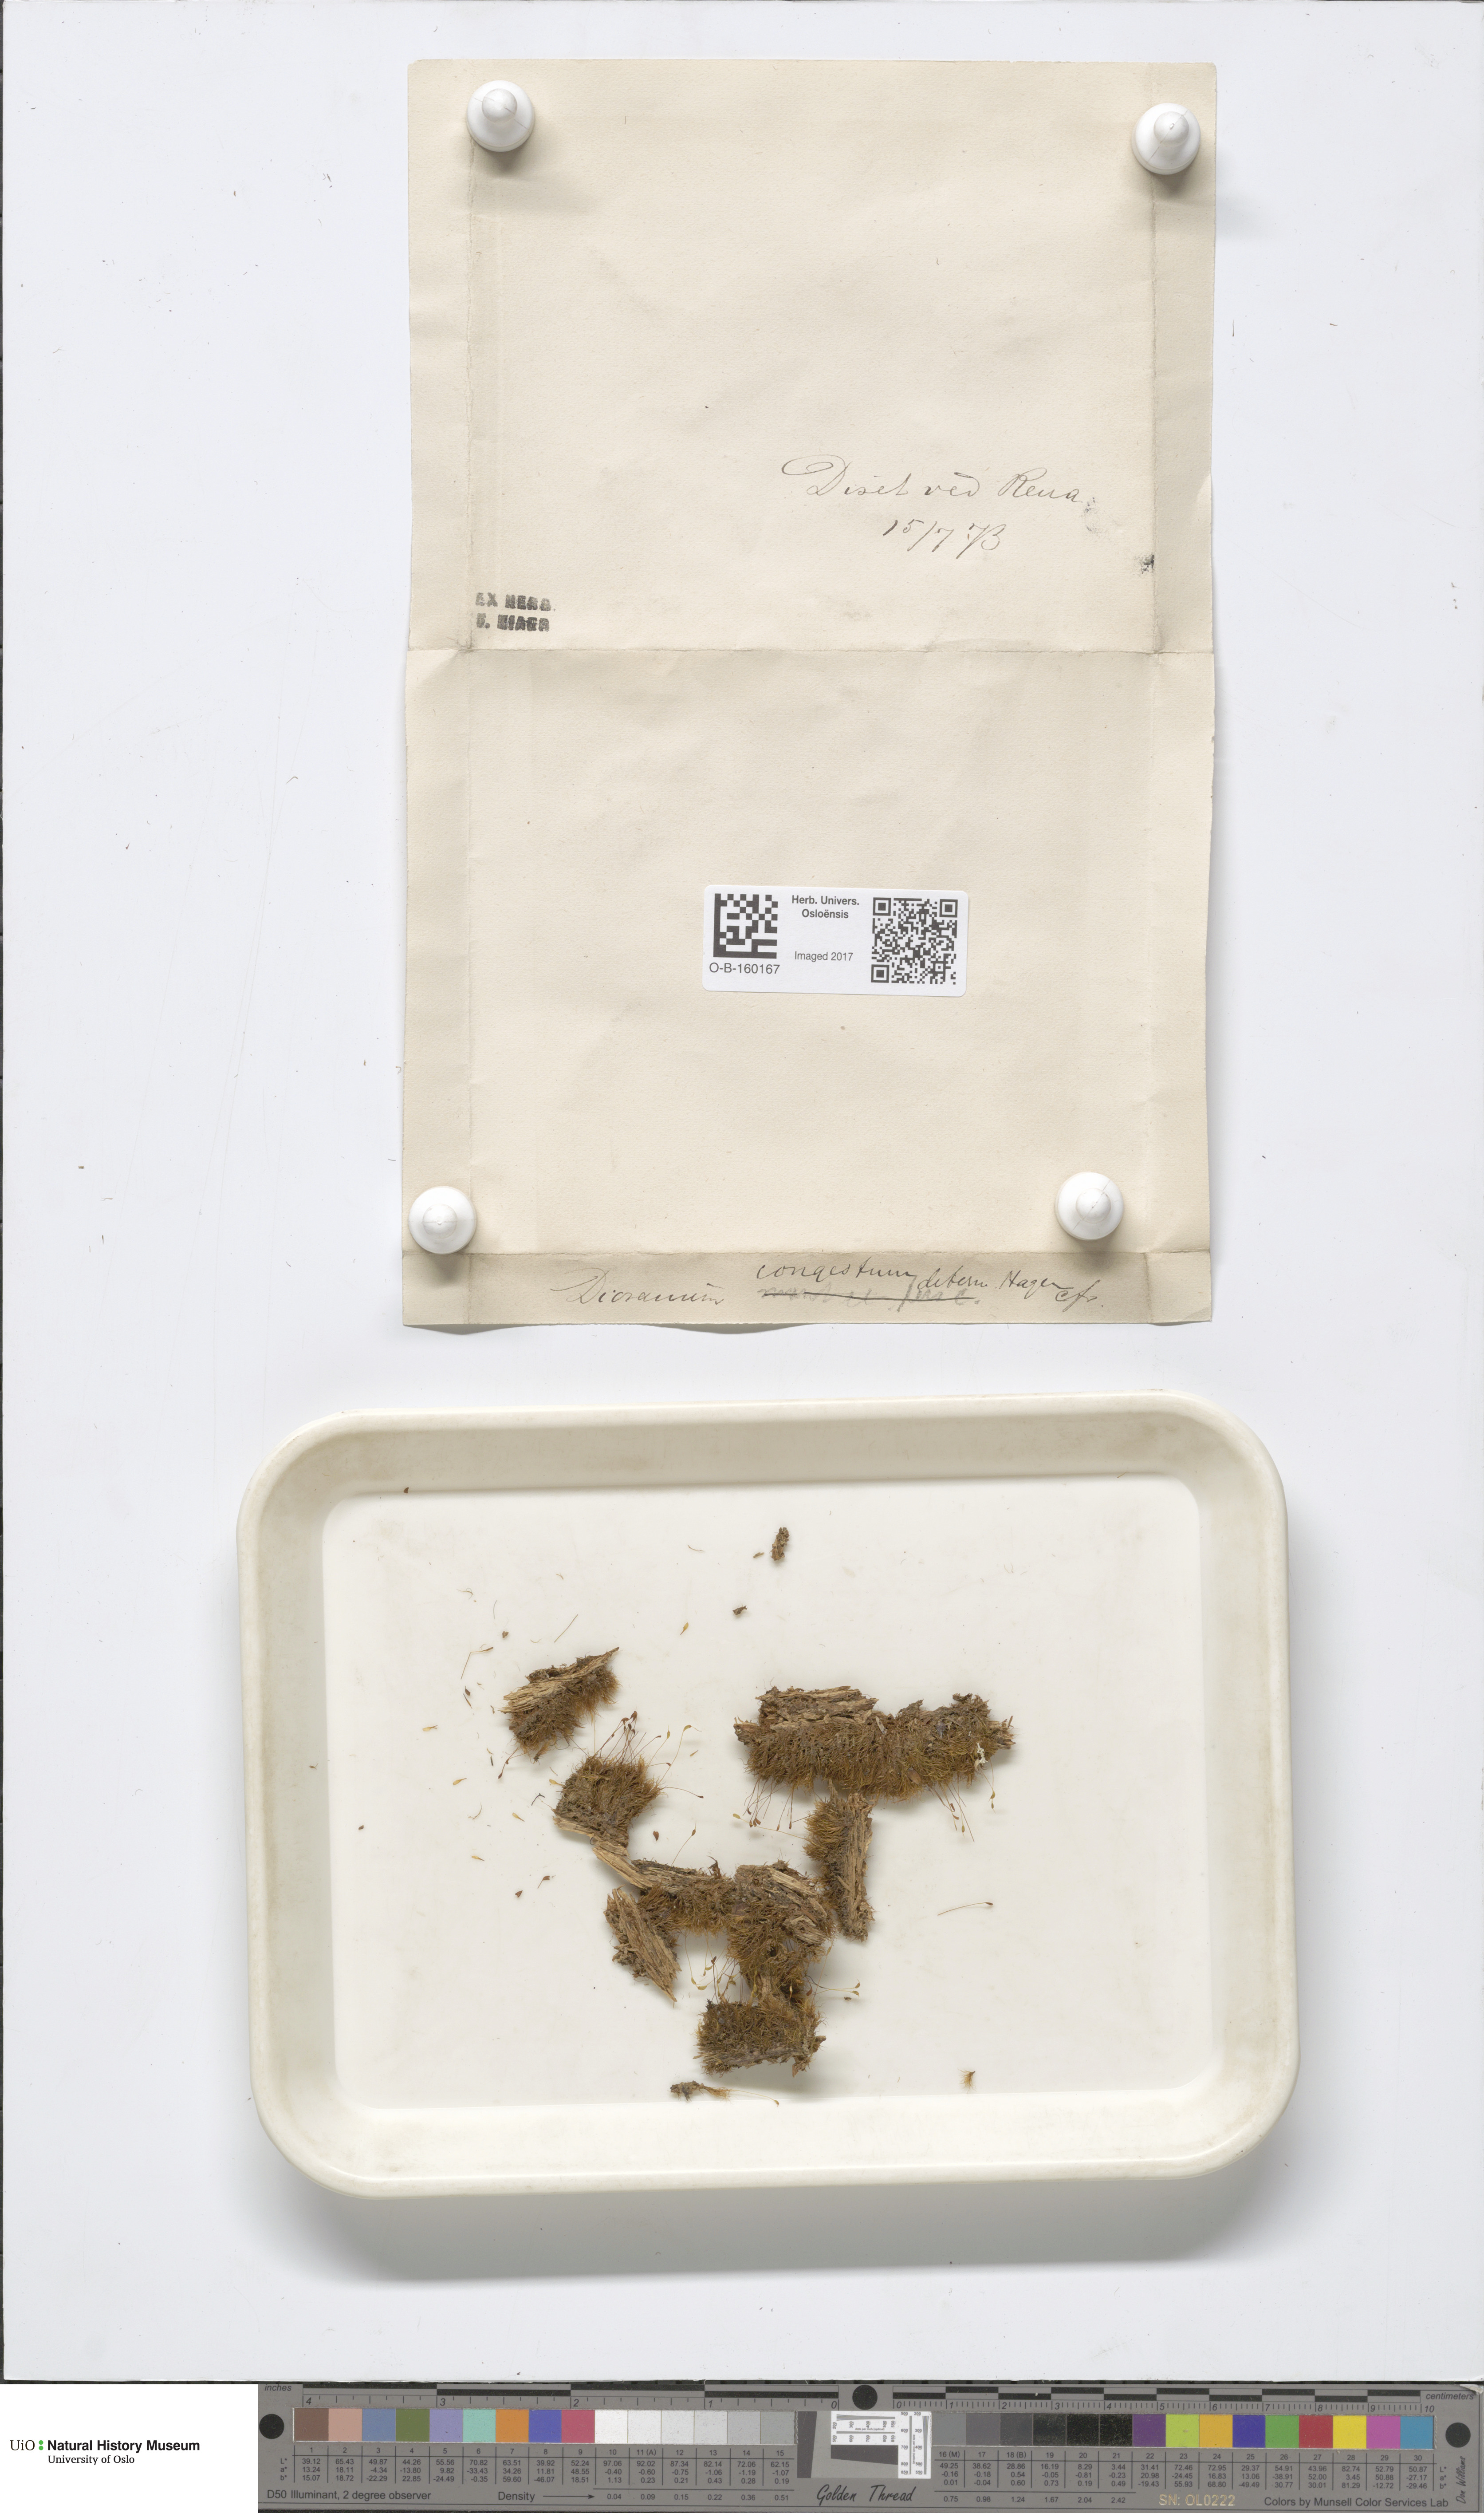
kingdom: Plantae
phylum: Bryophyta
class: Bryopsida
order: Dicranales
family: Dicranaceae
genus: Dicranum
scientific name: Dicranum flexicaule
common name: Bendy heron s-bill moss
